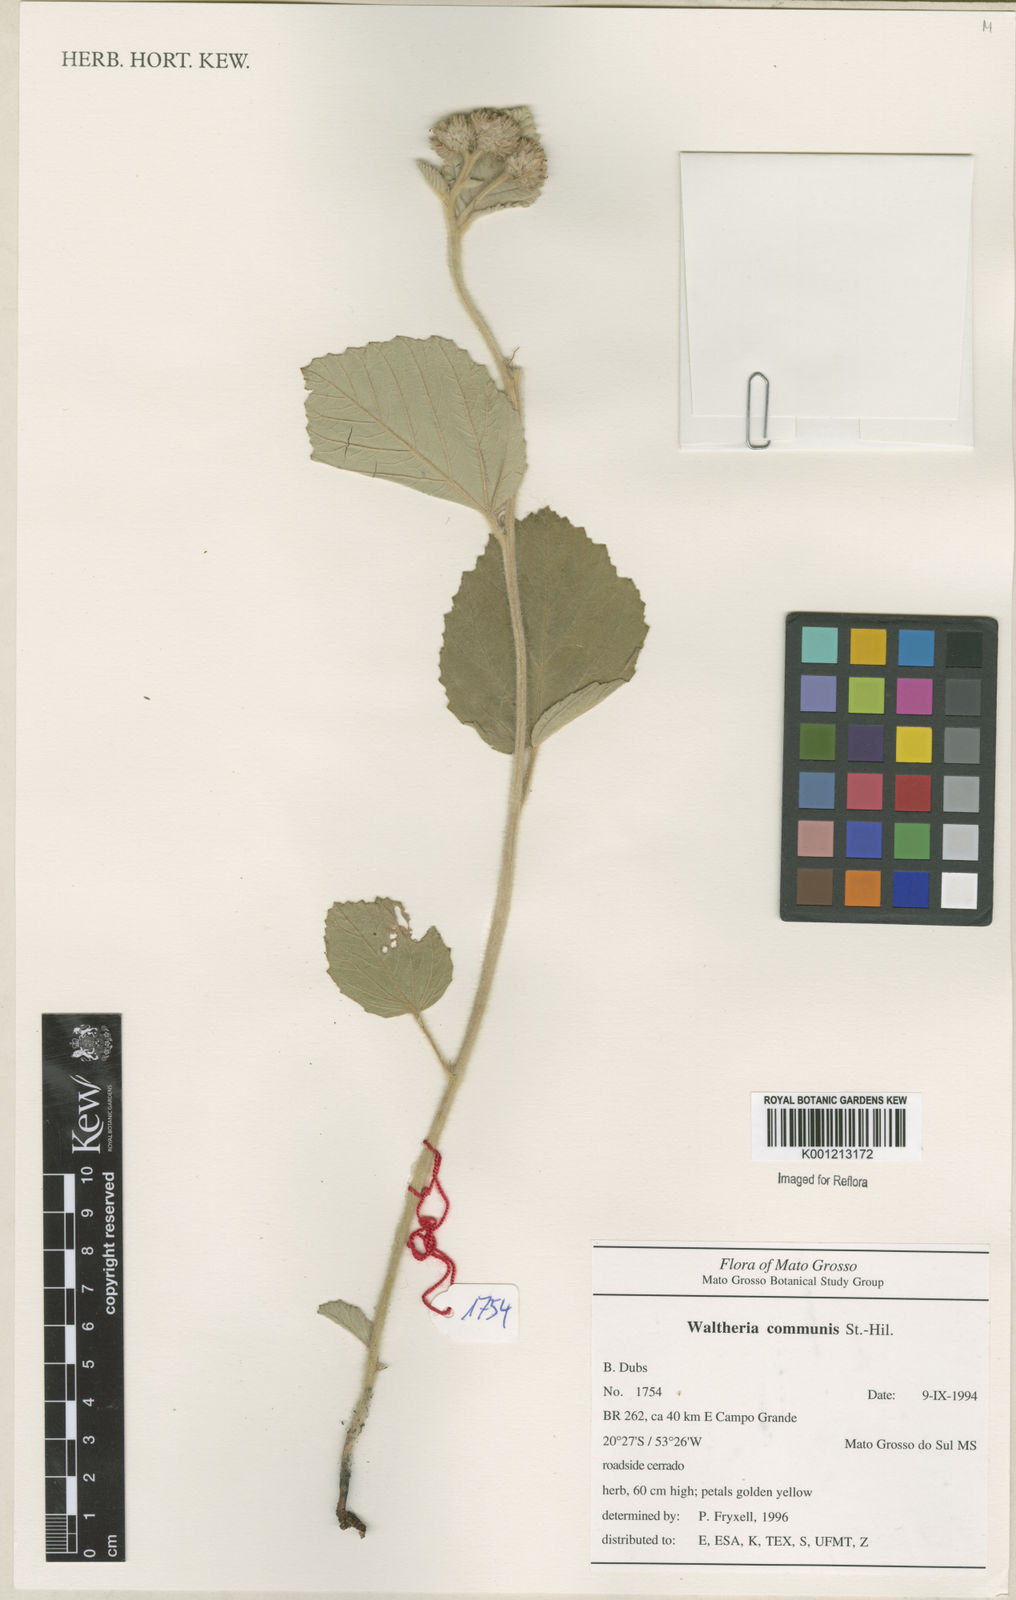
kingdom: Plantae
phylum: Tracheophyta
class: Magnoliopsida
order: Malvales
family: Malvaceae
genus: Waltheria
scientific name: Waltheria communis
